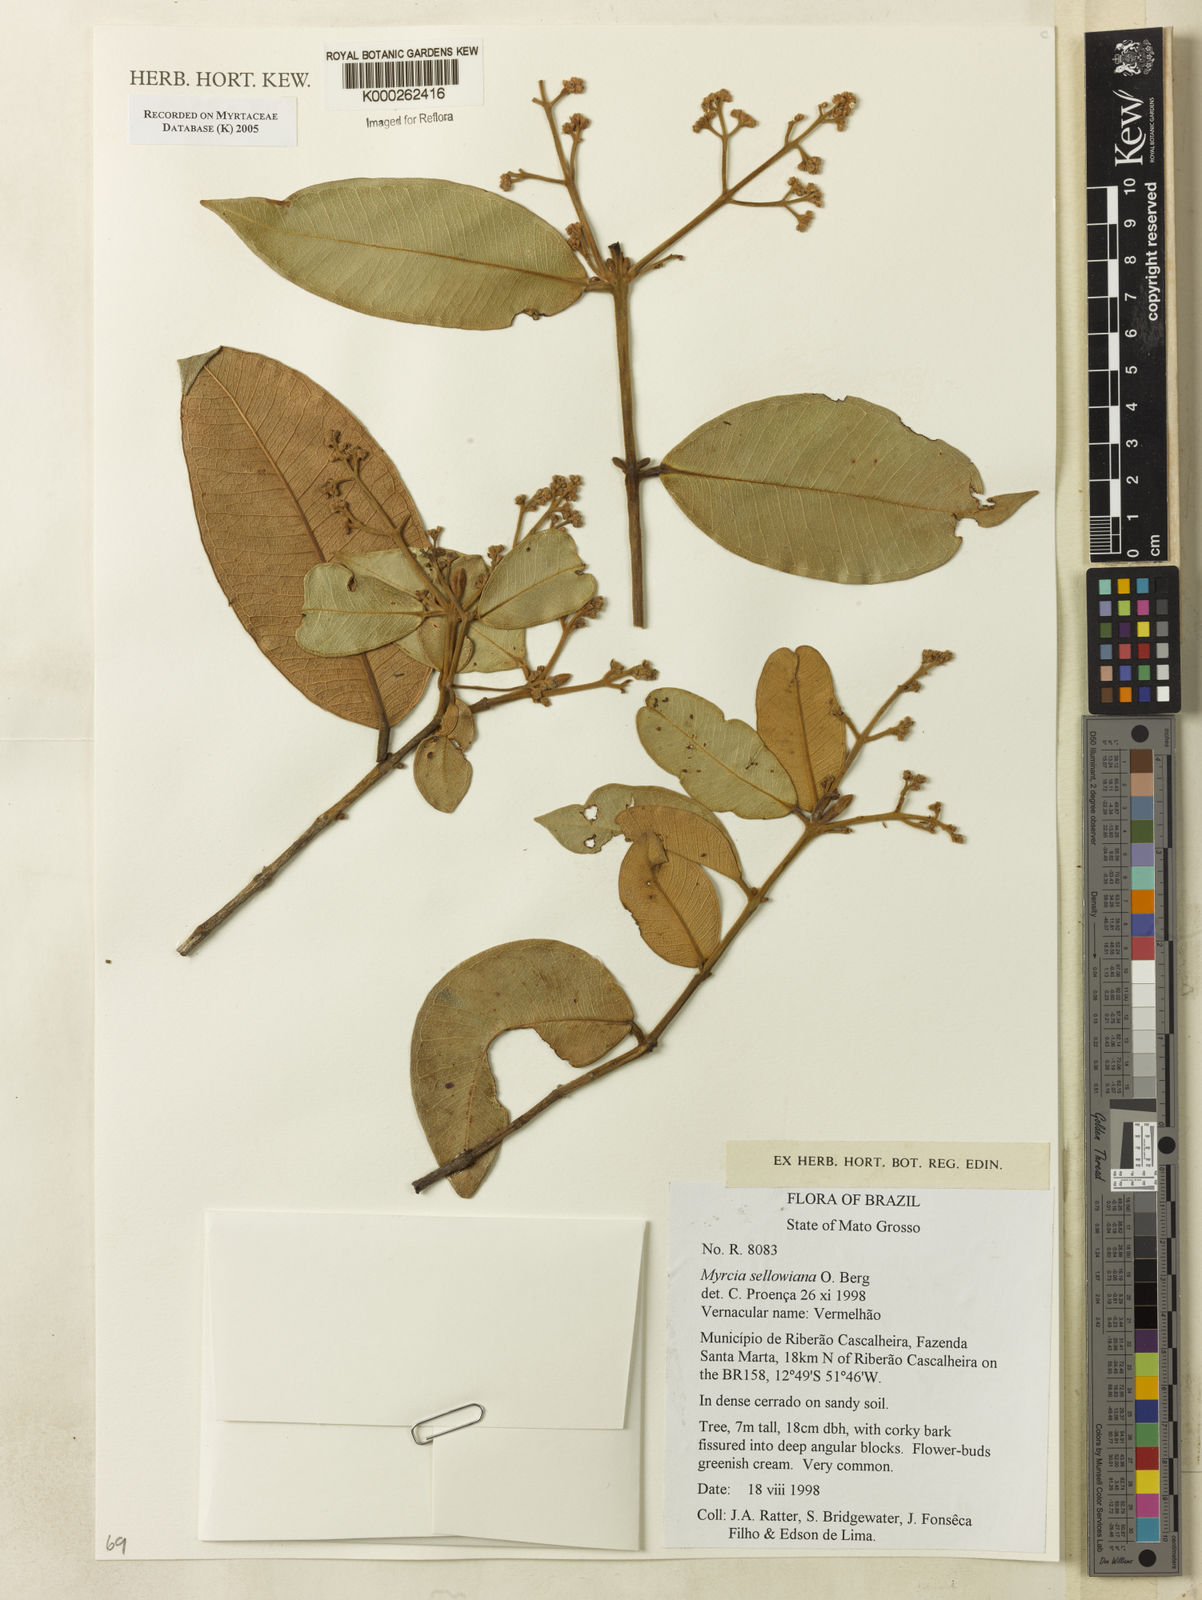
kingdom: Plantae
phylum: Tracheophyta
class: Magnoliopsida
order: Myrtales
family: Myrtaceae
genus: Myrcia
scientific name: Myrcia splendens
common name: Surinam cherry
